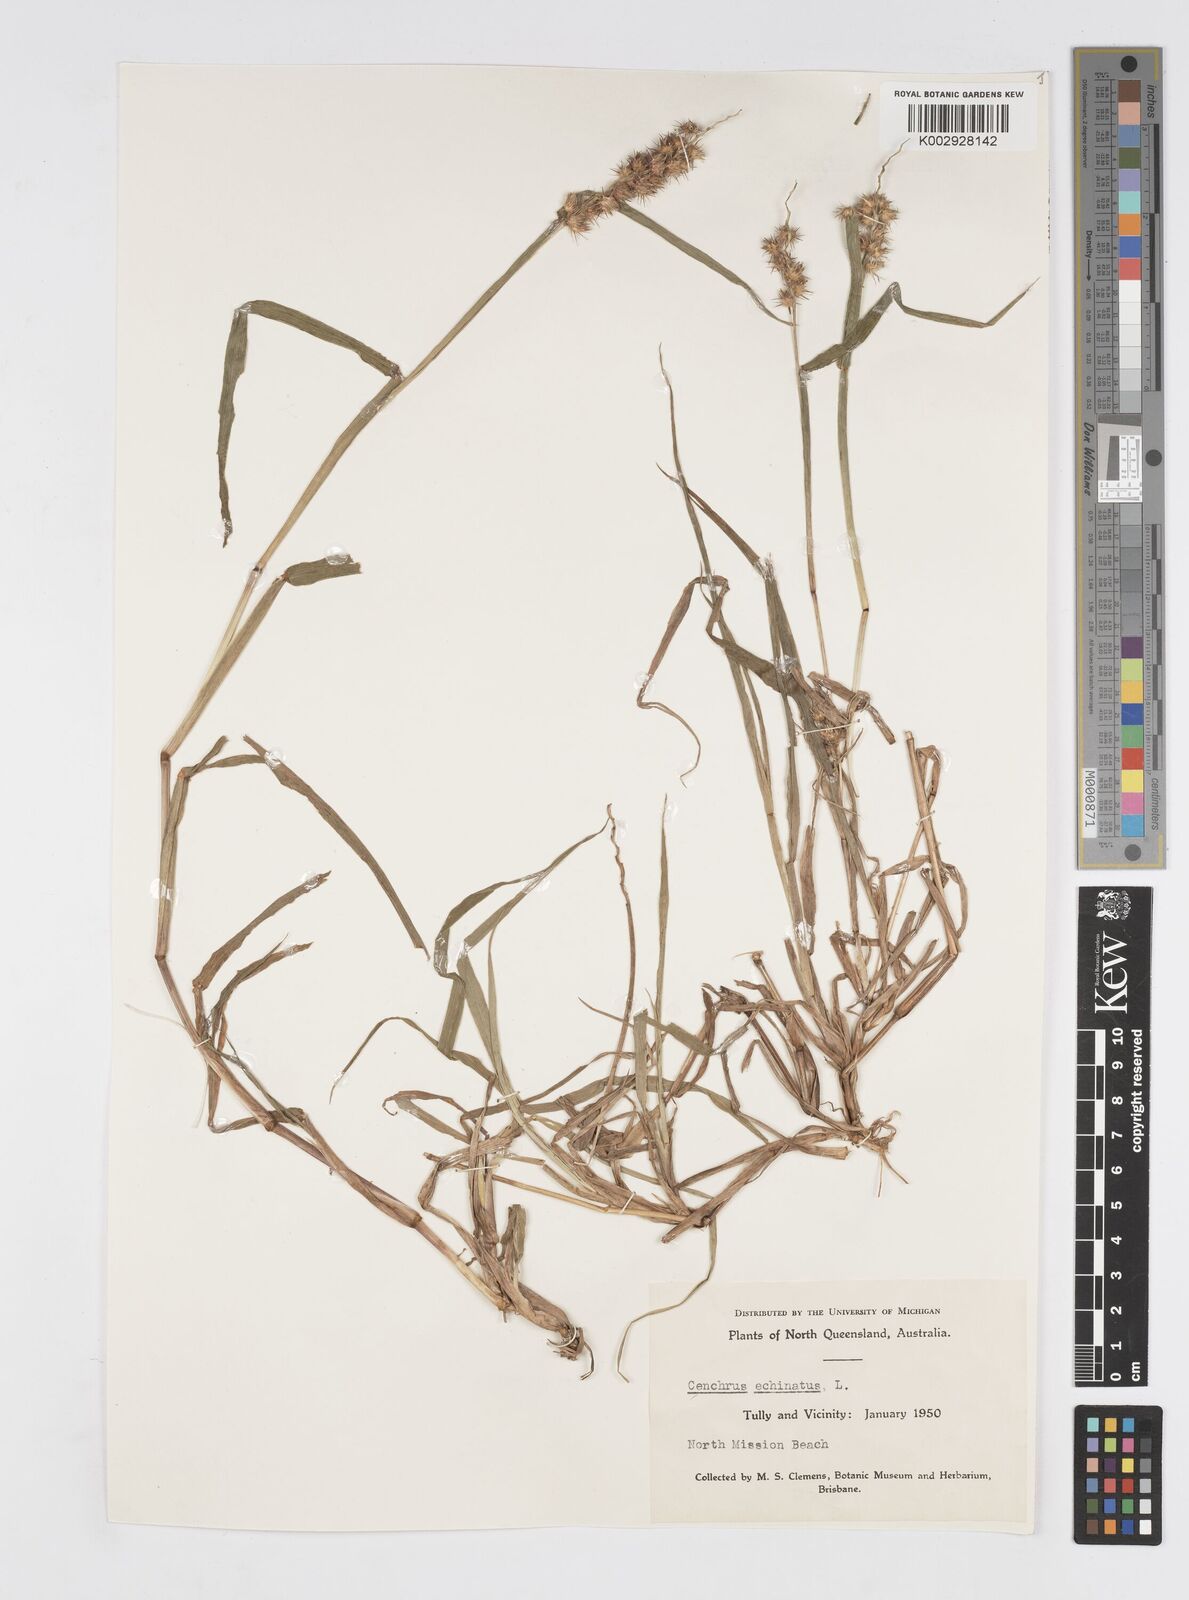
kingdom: Plantae
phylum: Tracheophyta
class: Liliopsida
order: Poales
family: Poaceae
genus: Cenchrus
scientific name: Cenchrus echinatus
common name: Southern sandbur
